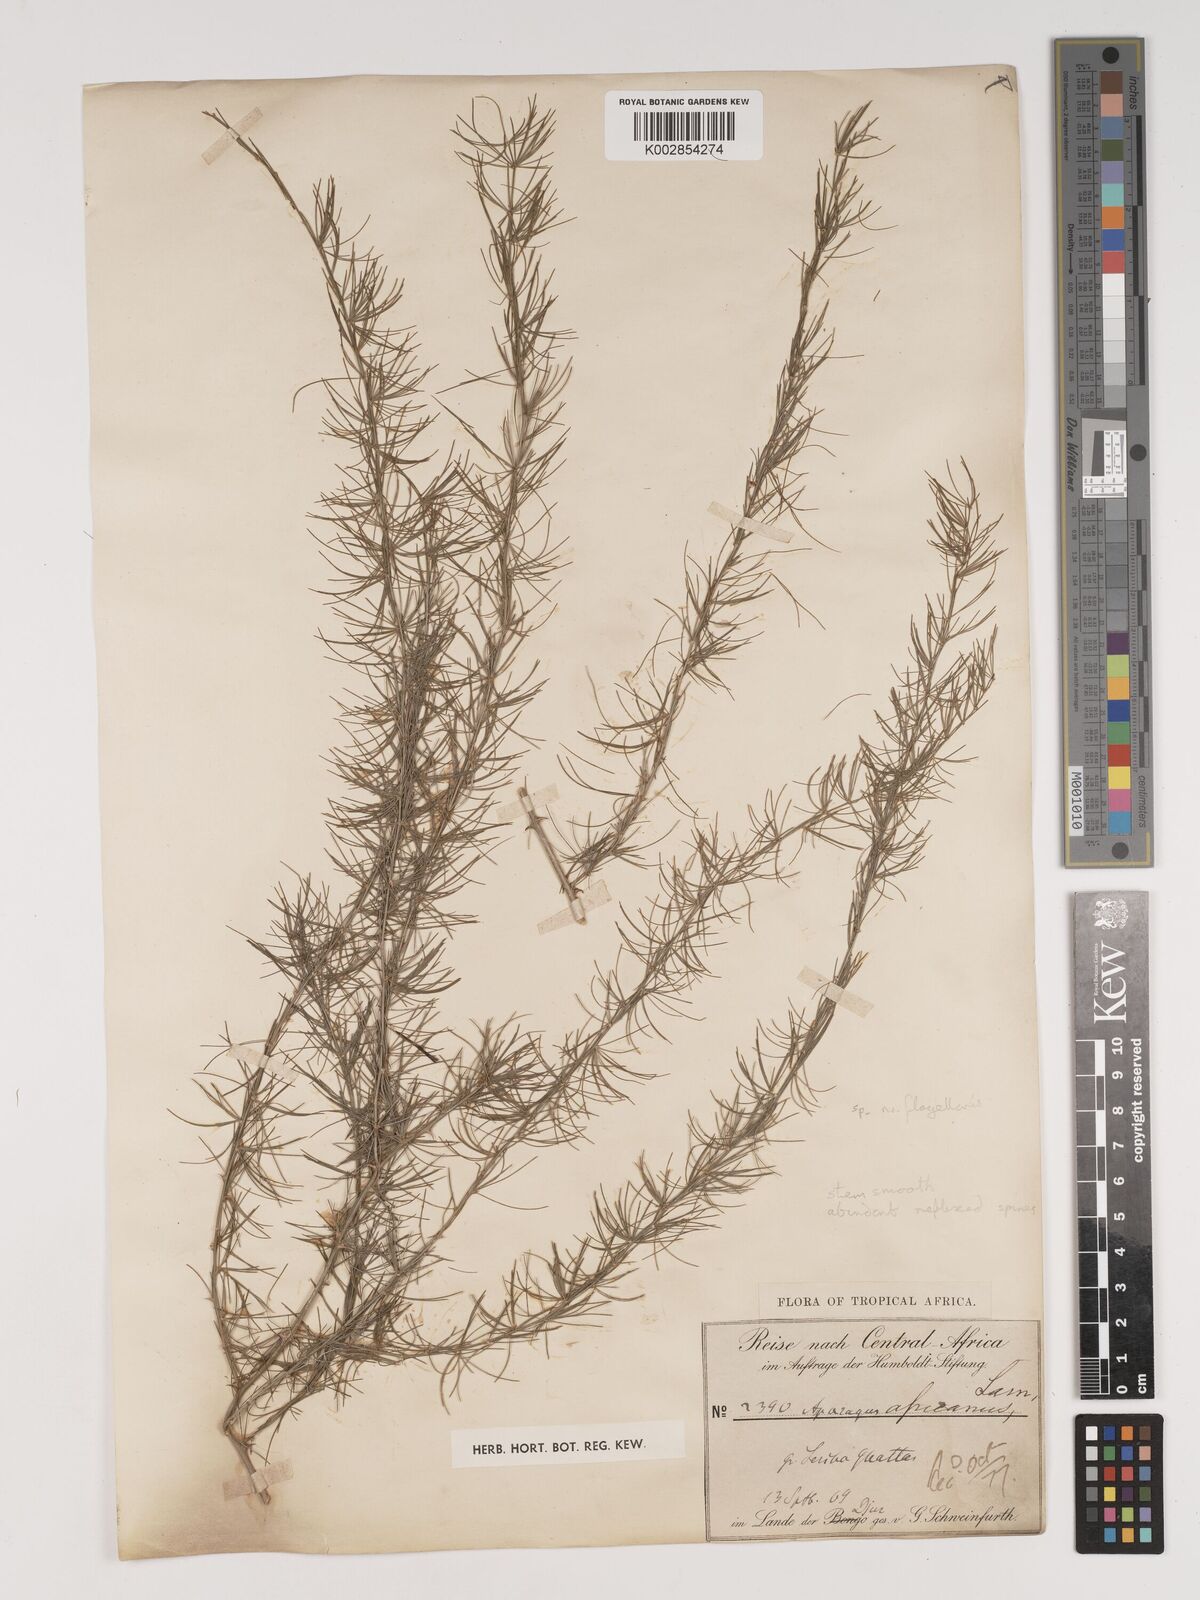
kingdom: Plantae
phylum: Tracheophyta
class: Liliopsida
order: Asparagales
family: Asparagaceae
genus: Asparagus
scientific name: Asparagus africanus
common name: Asparagus-fern
